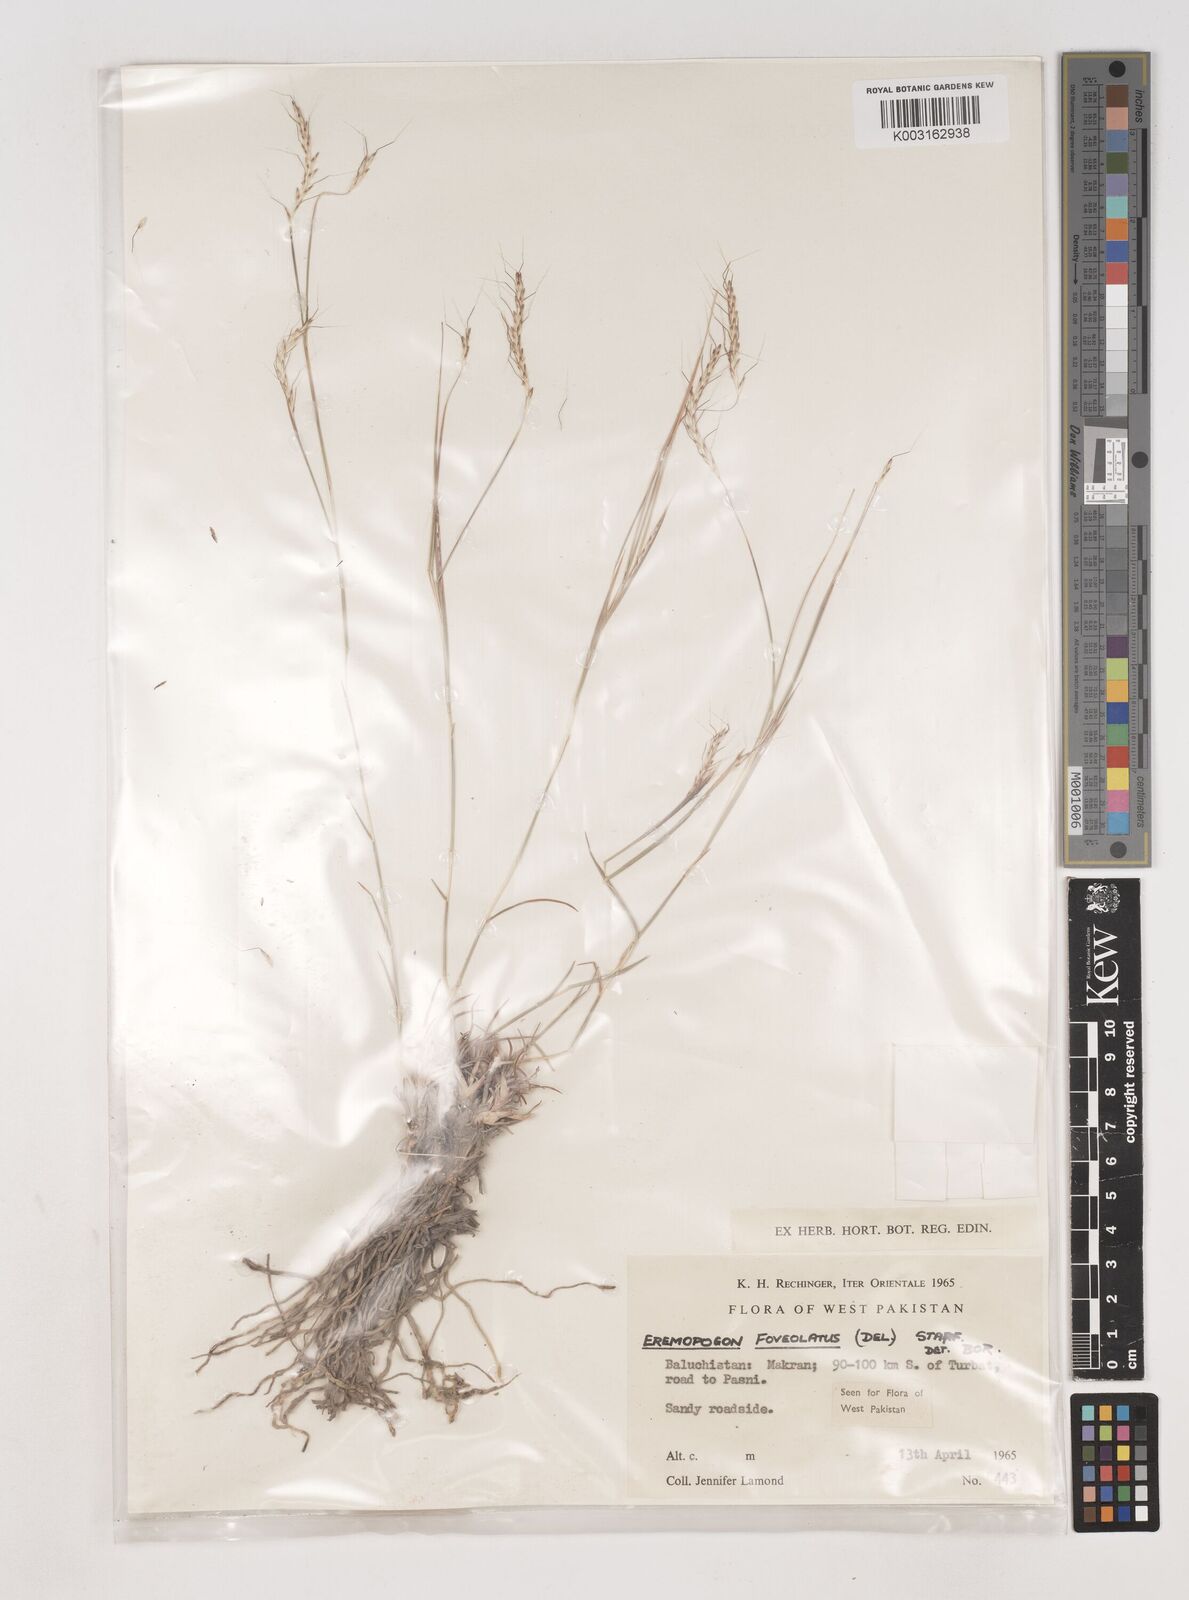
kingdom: Plantae
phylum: Tracheophyta
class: Liliopsida
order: Poales
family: Poaceae
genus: Dichanthium
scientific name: Dichanthium
